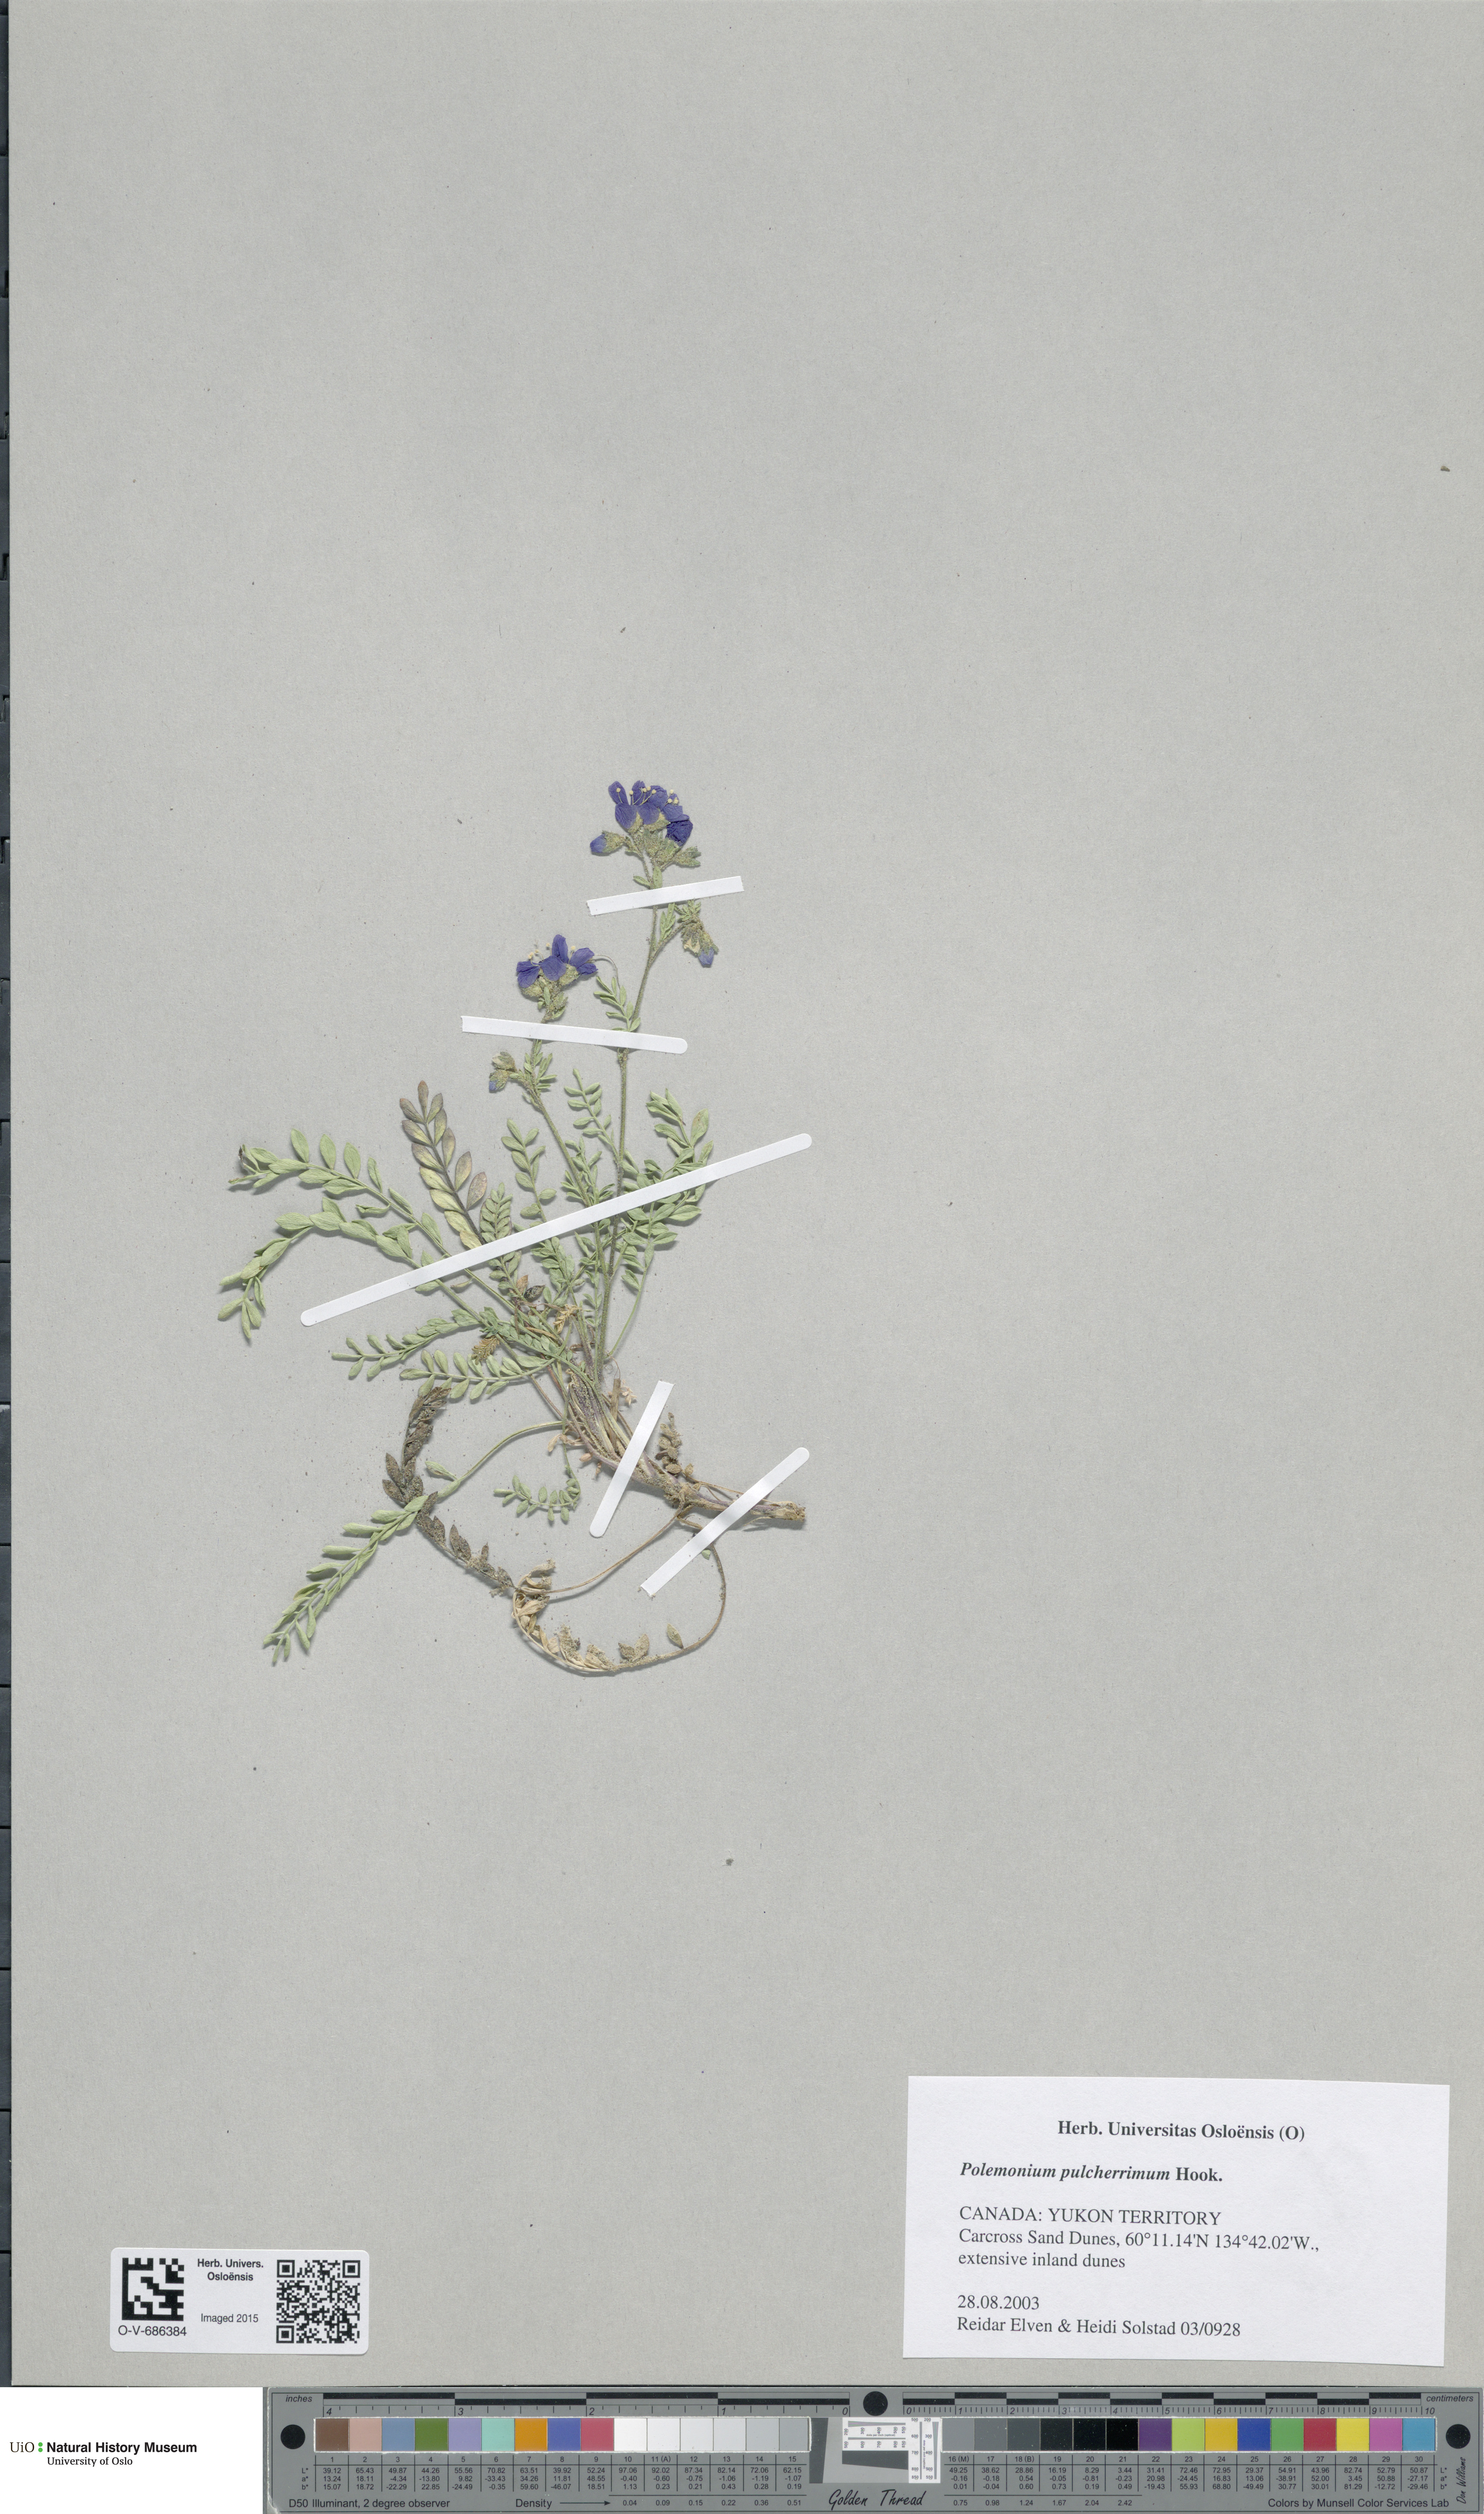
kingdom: Plantae
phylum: Tracheophyta
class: Magnoliopsida
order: Ericales
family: Polemoniaceae
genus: Polemonium
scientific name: Polemonium pulcherrimum
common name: Short jacob's-ladder
